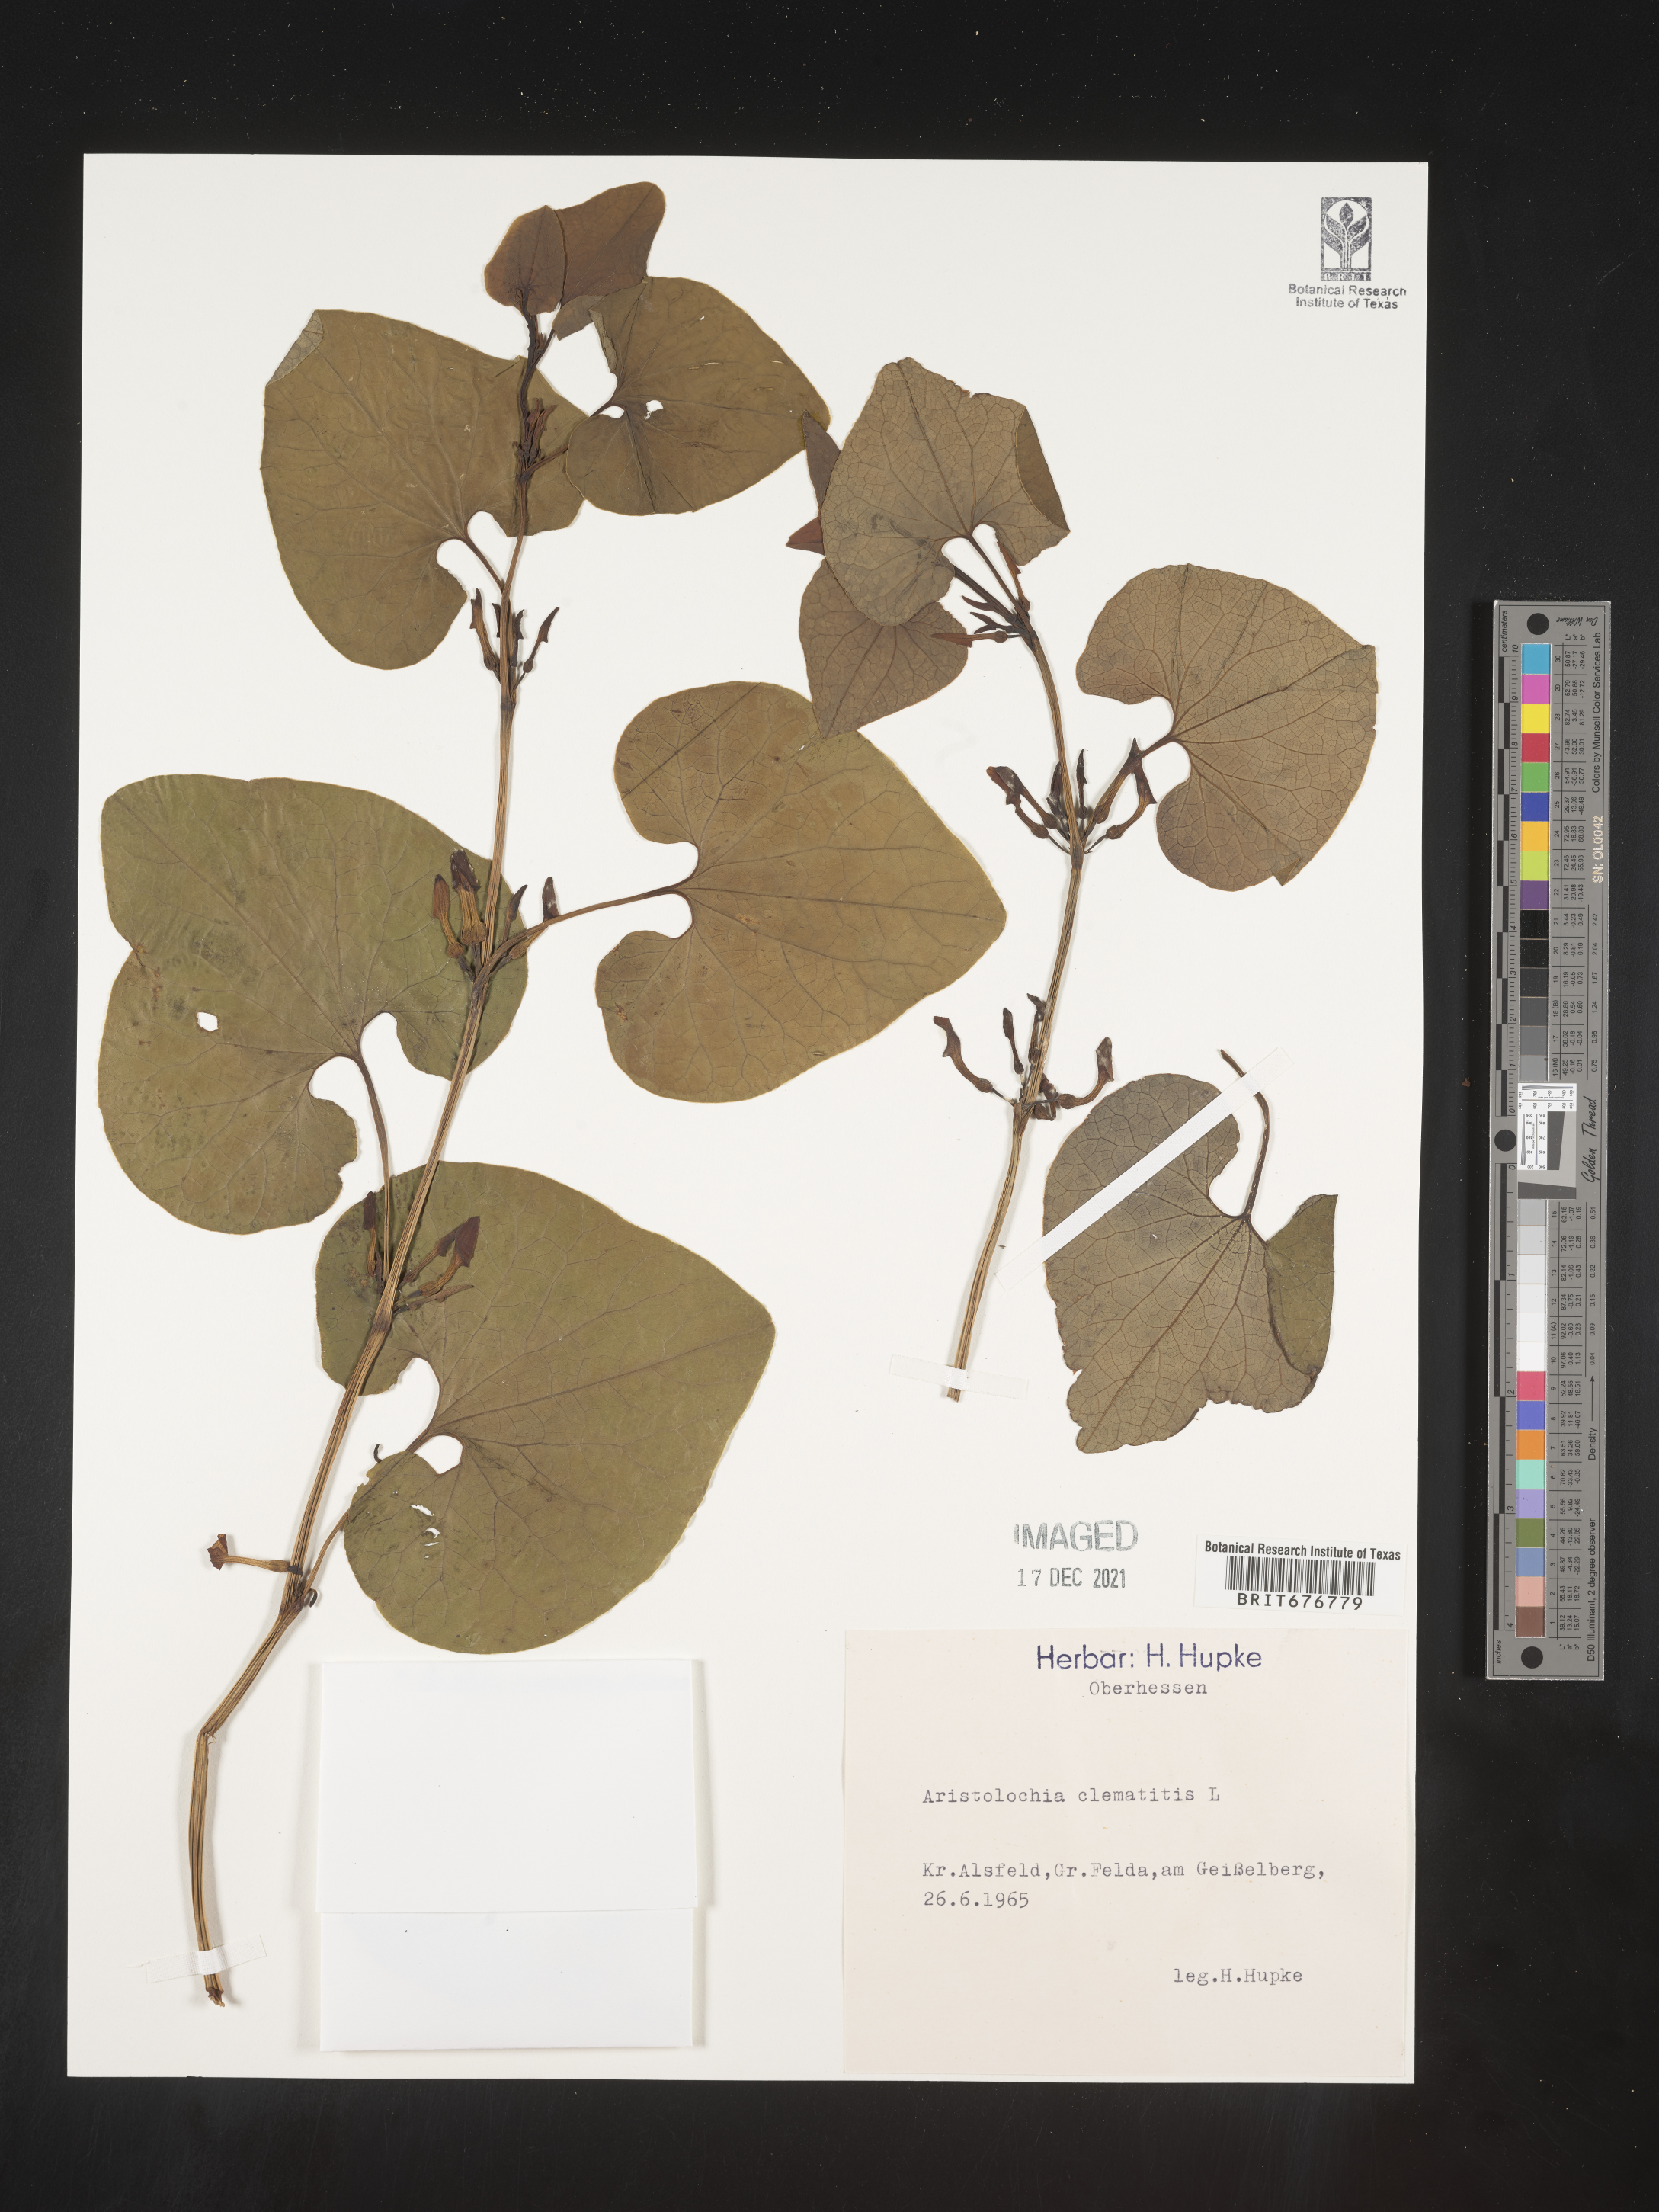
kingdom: Plantae
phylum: Tracheophyta
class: Magnoliopsida
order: Piperales
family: Aristolochiaceae
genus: Aristolochia
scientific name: Aristolochia
